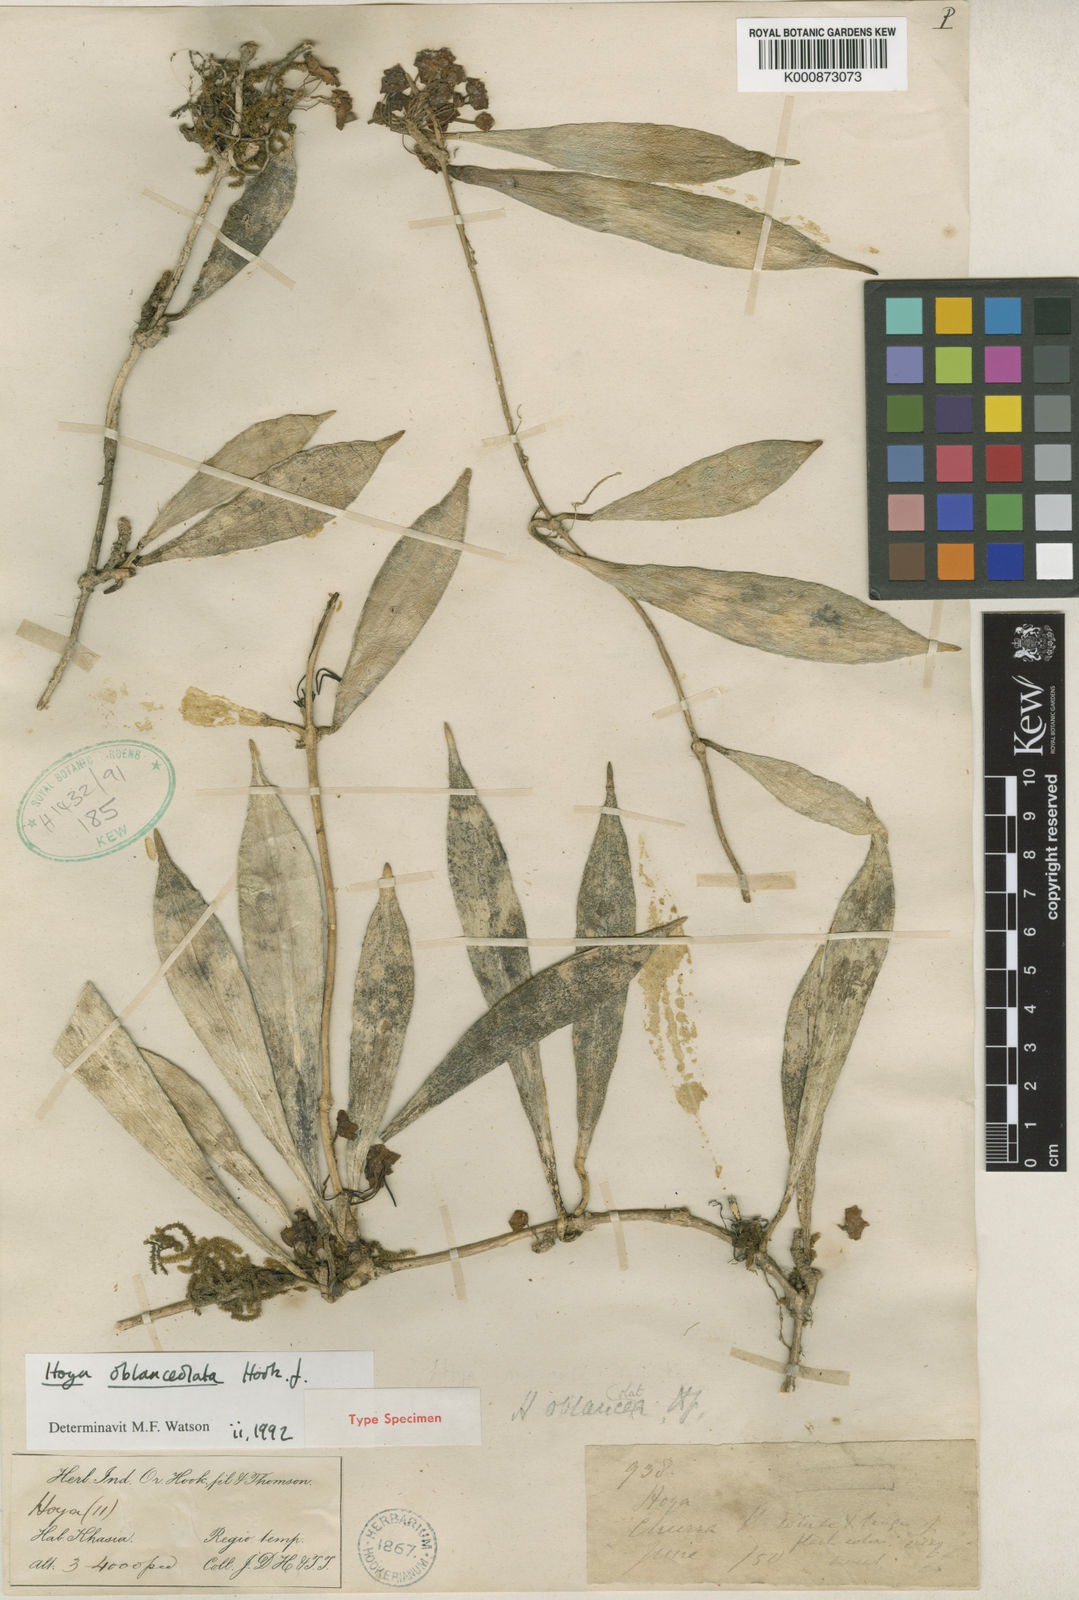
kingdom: Plantae
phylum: Tracheophyta
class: Magnoliopsida
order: Gentianales
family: Apocynaceae
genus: Hoya
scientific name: Hoya oblanceolata
